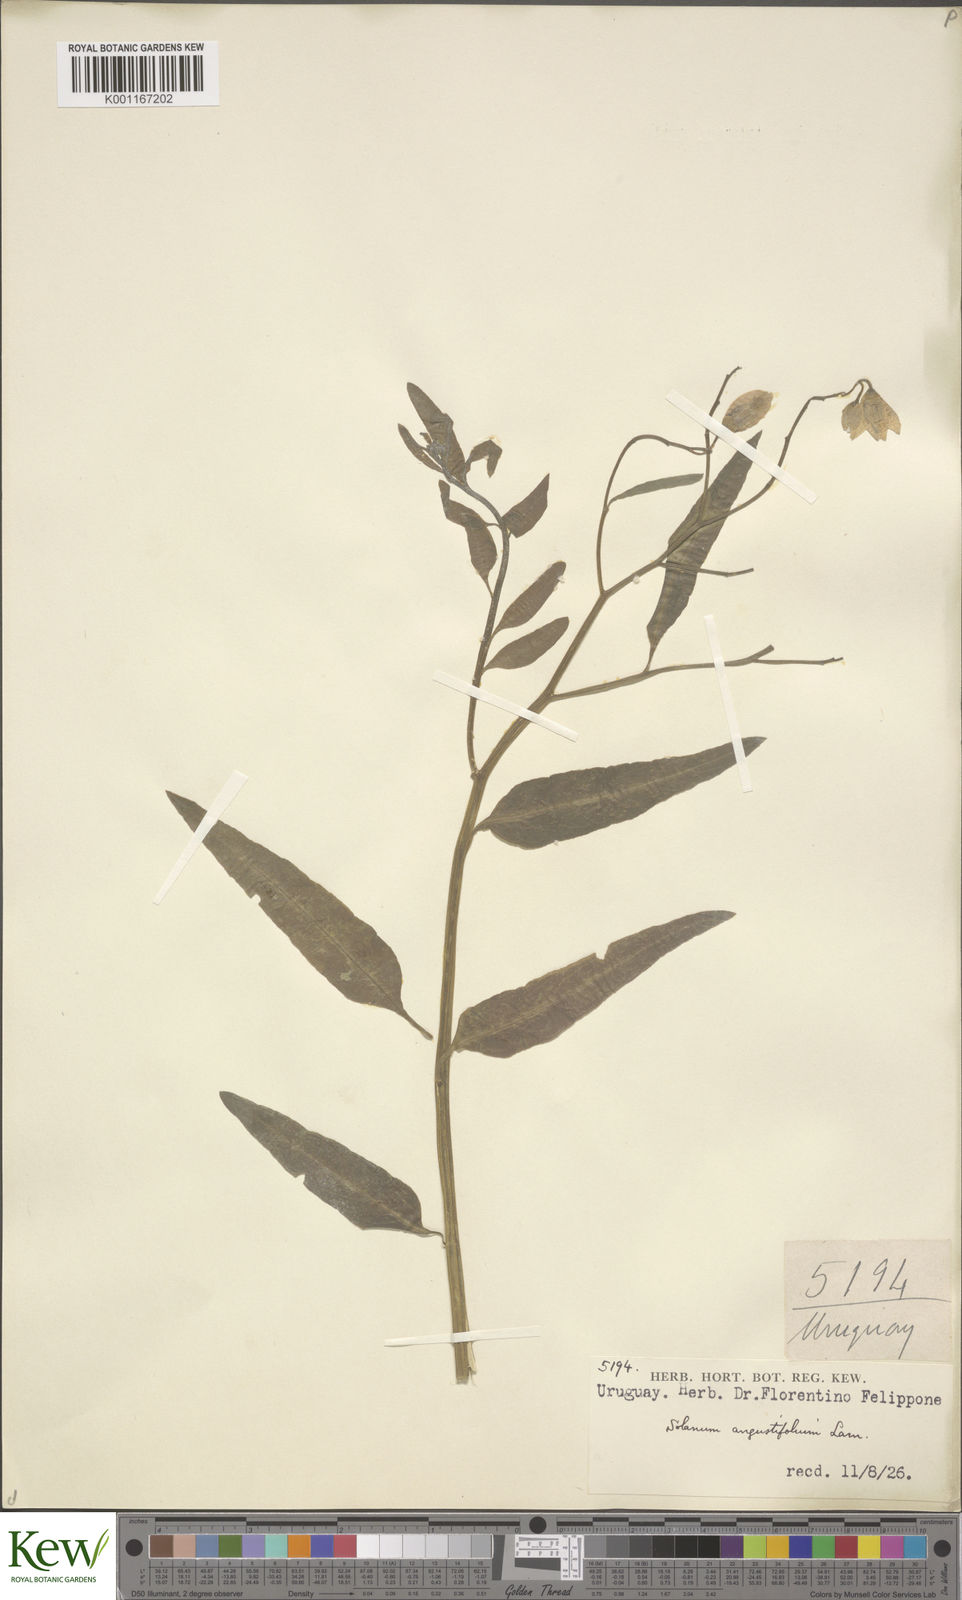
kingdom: Plantae
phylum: Tracheophyta
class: Magnoliopsida
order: Solanales
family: Solanaceae
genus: Solanum
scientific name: Solanum amygdalifolium
